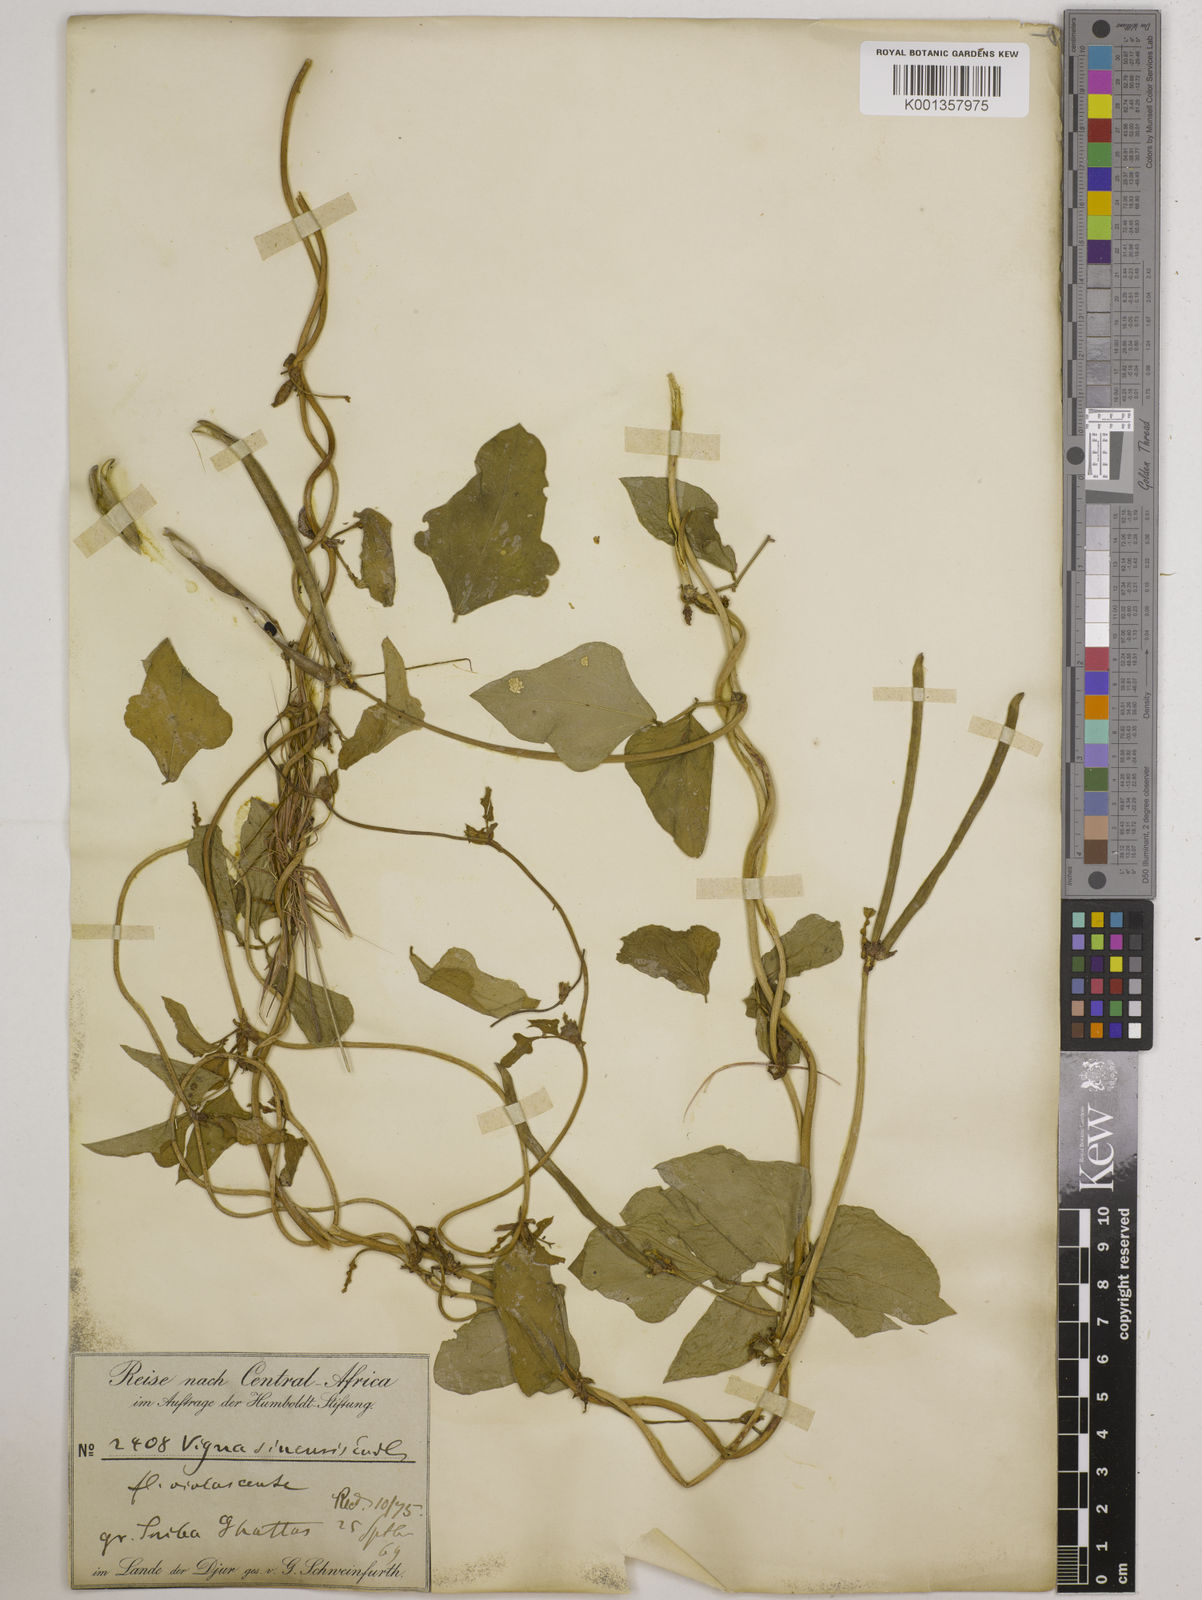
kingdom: Plantae
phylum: Tracheophyta
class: Magnoliopsida
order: Fabales
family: Fabaceae
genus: Vigna
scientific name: Vigna
